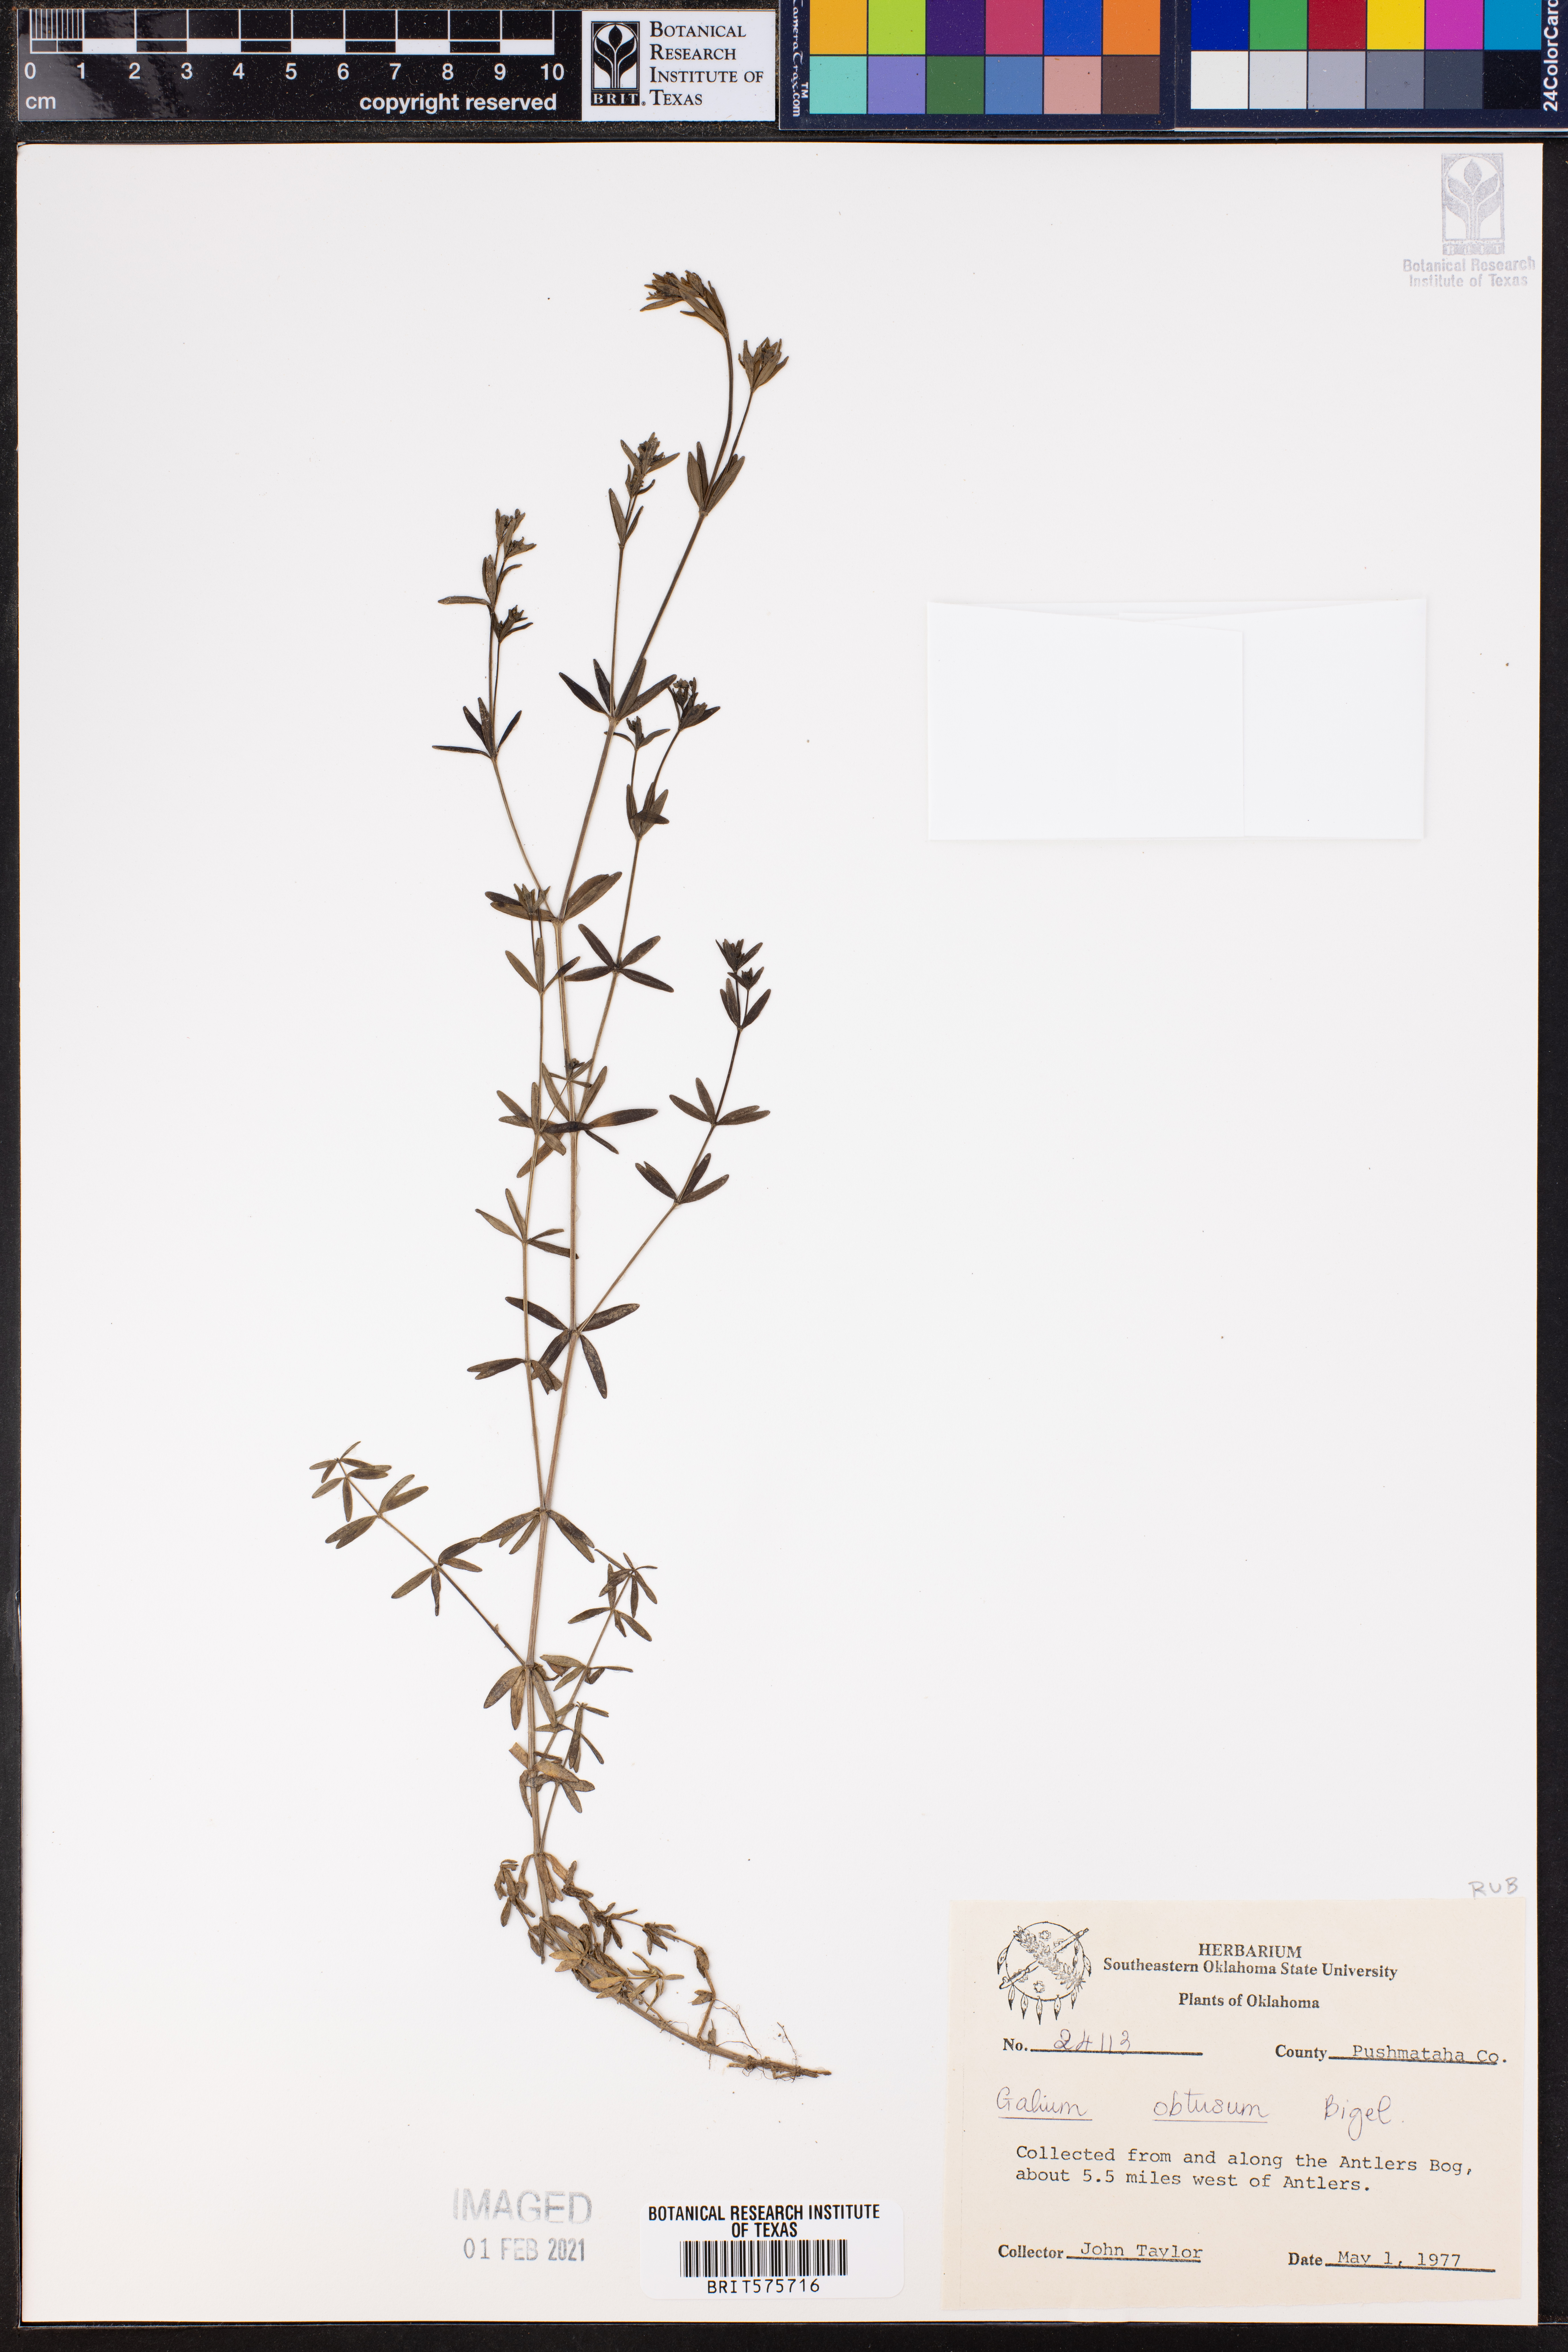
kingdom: Plantae
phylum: Tracheophyta
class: Magnoliopsida
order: Gentianales
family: Rubiaceae
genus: Galium
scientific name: Galium obtusum
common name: Blunt-leaved bedstraw
